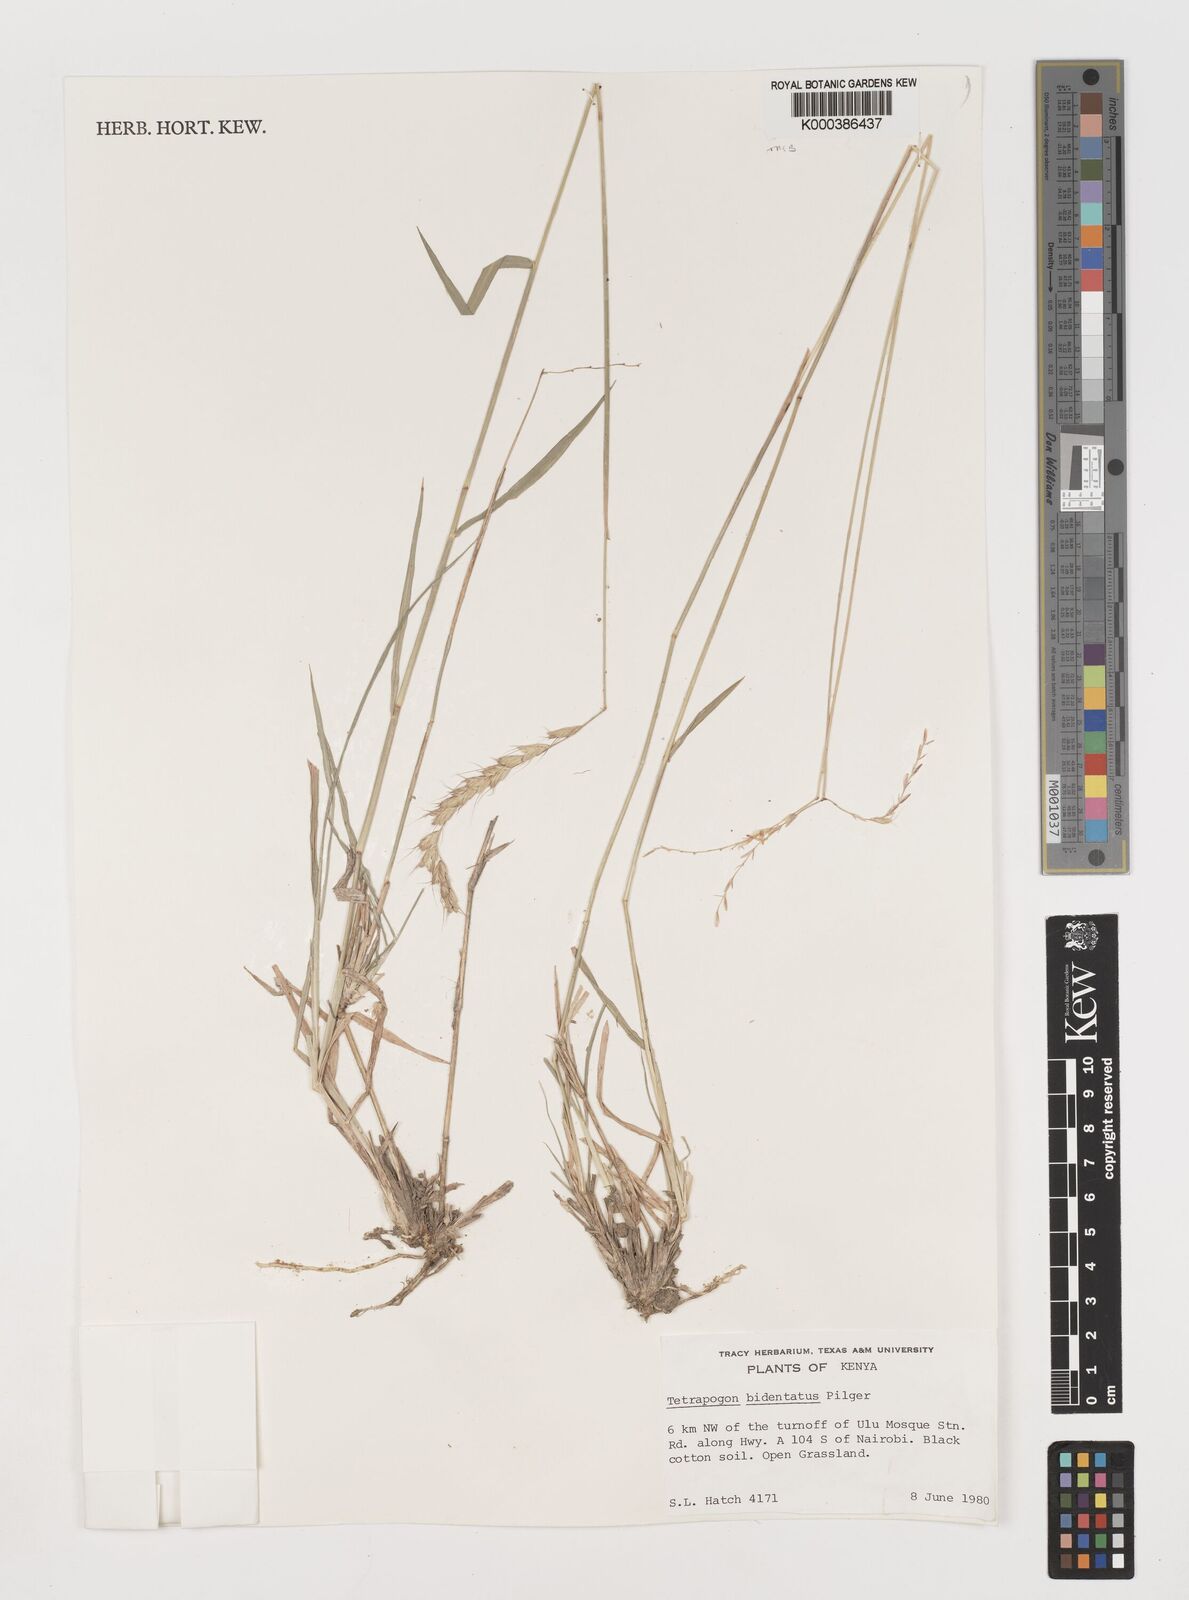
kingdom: Plantae
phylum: Tracheophyta
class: Liliopsida
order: Poales
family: Poaceae
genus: Tetrapogon
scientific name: Tetrapogon bidentatus
